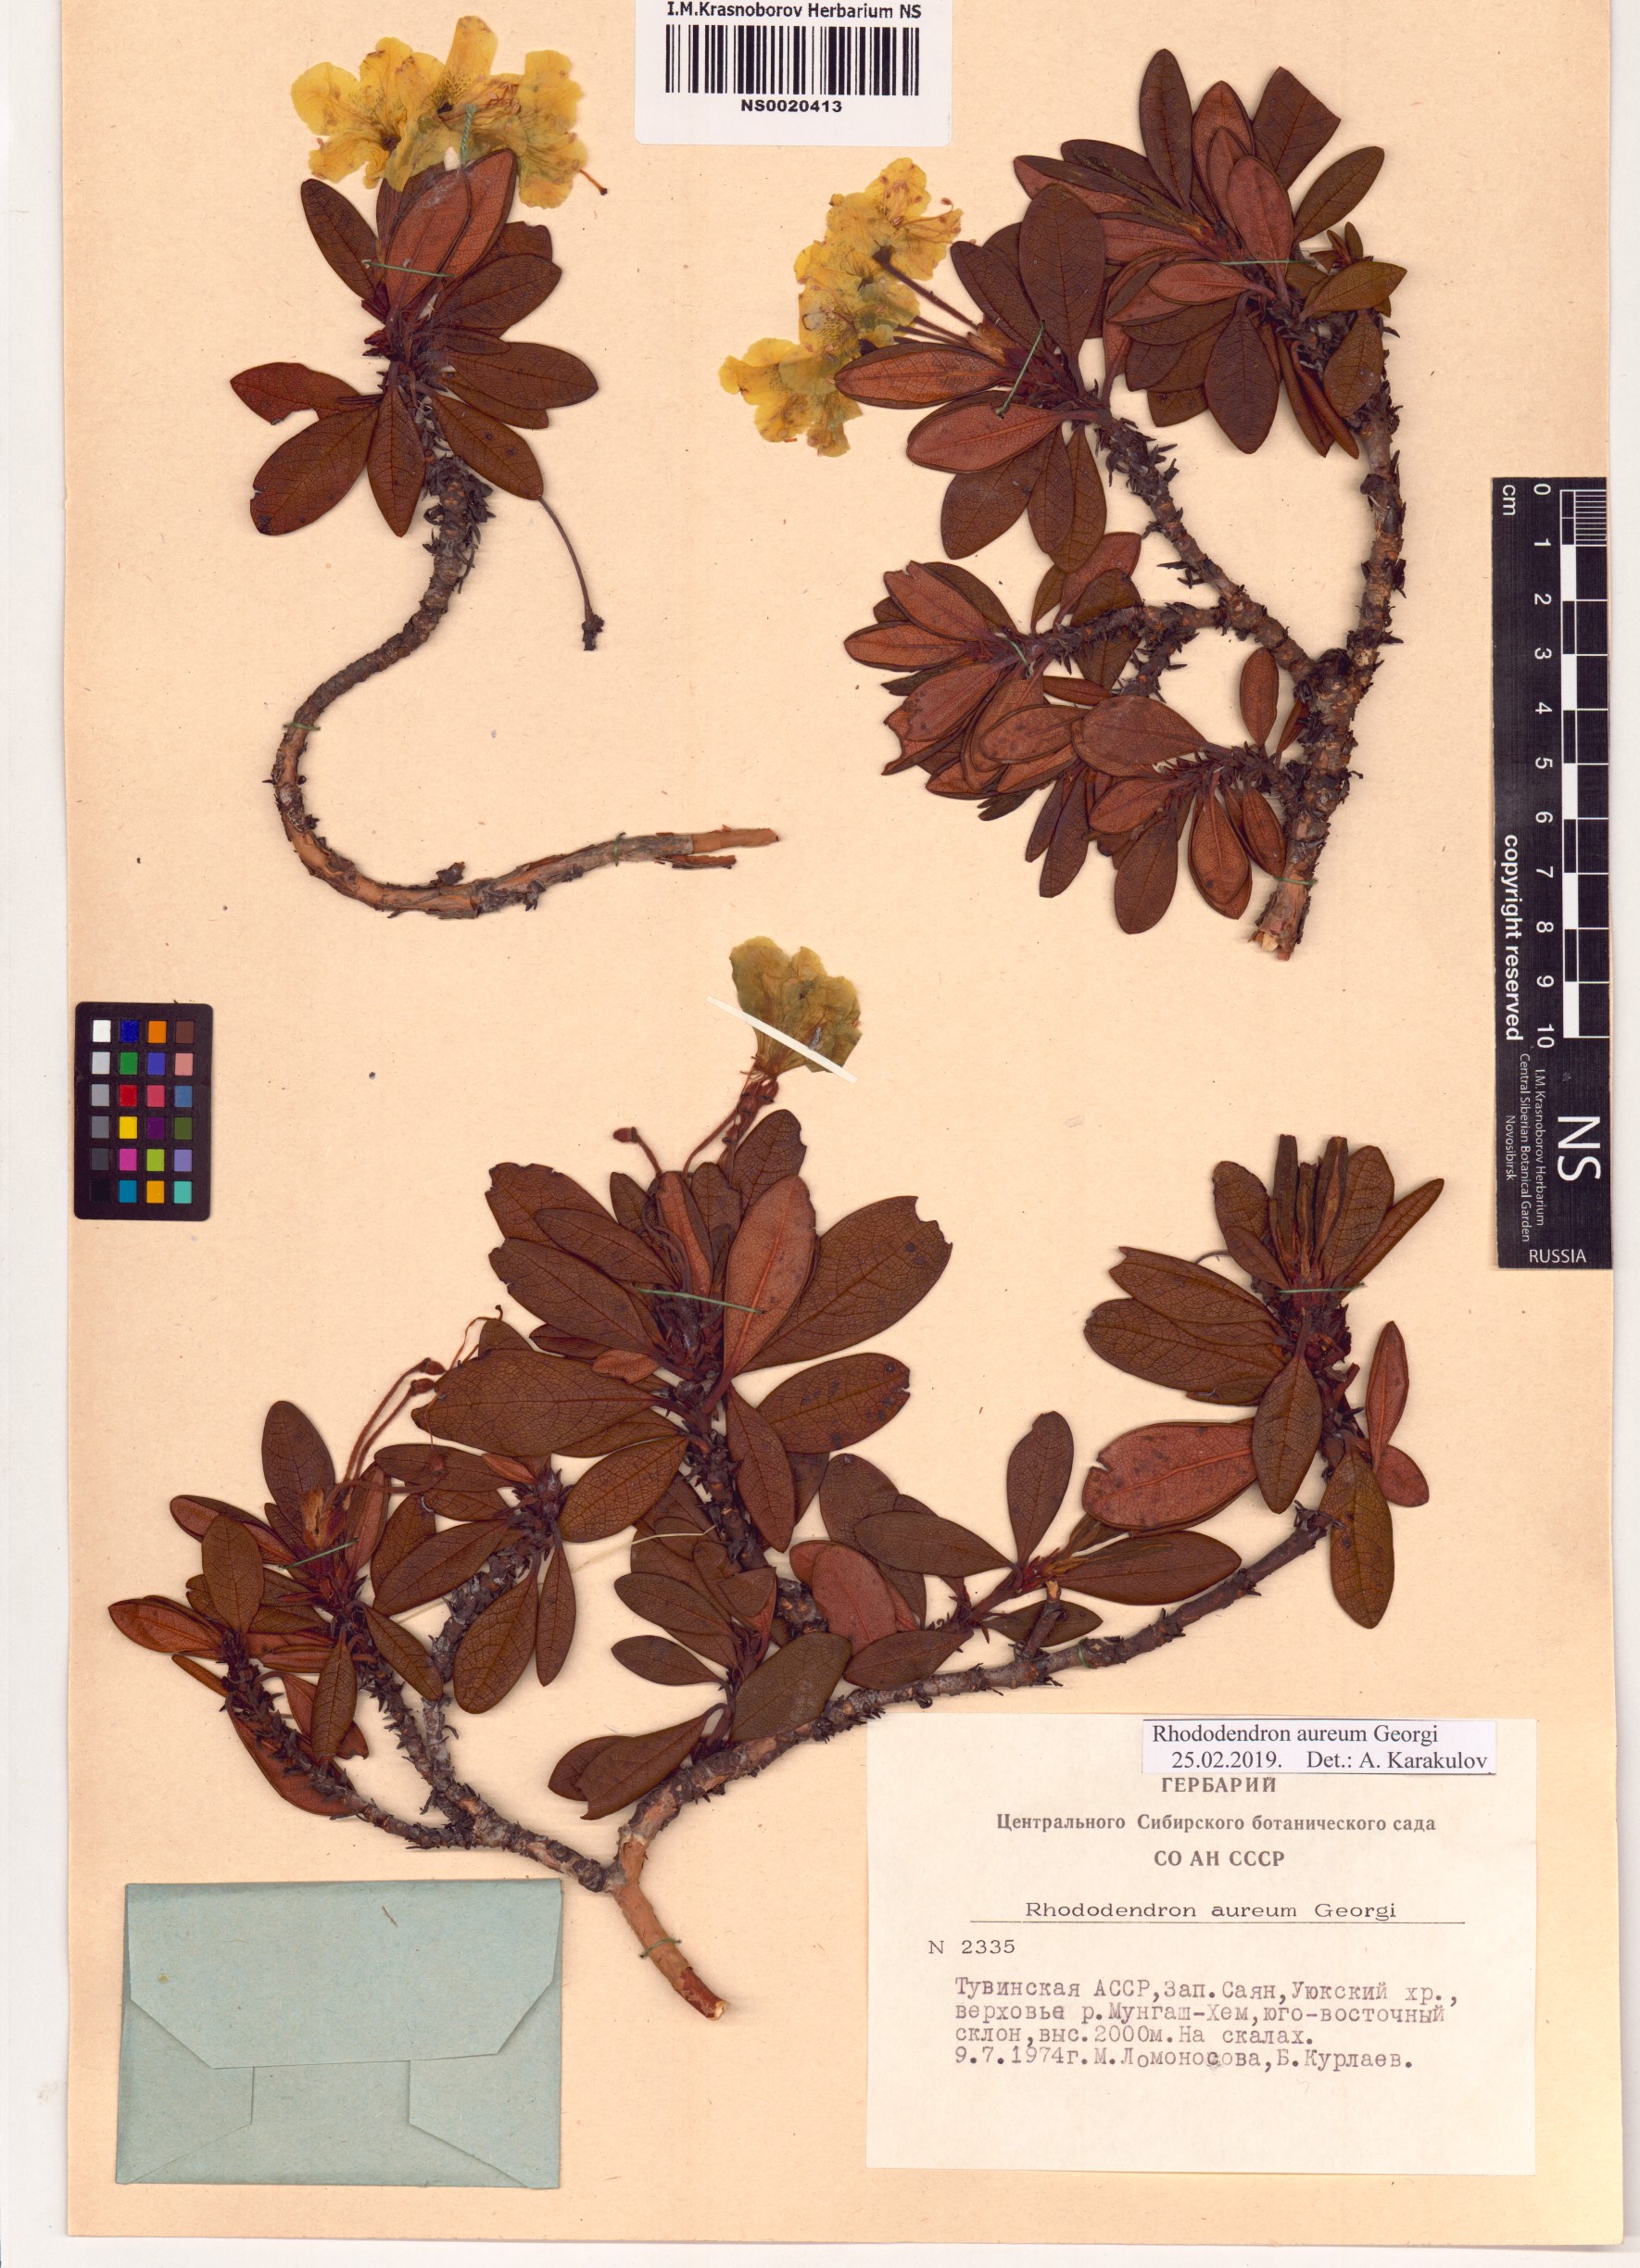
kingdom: Plantae
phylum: Tracheophyta
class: Magnoliopsida
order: Ericales
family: Ericaceae
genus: Rhododendron
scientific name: Rhododendron aureum
